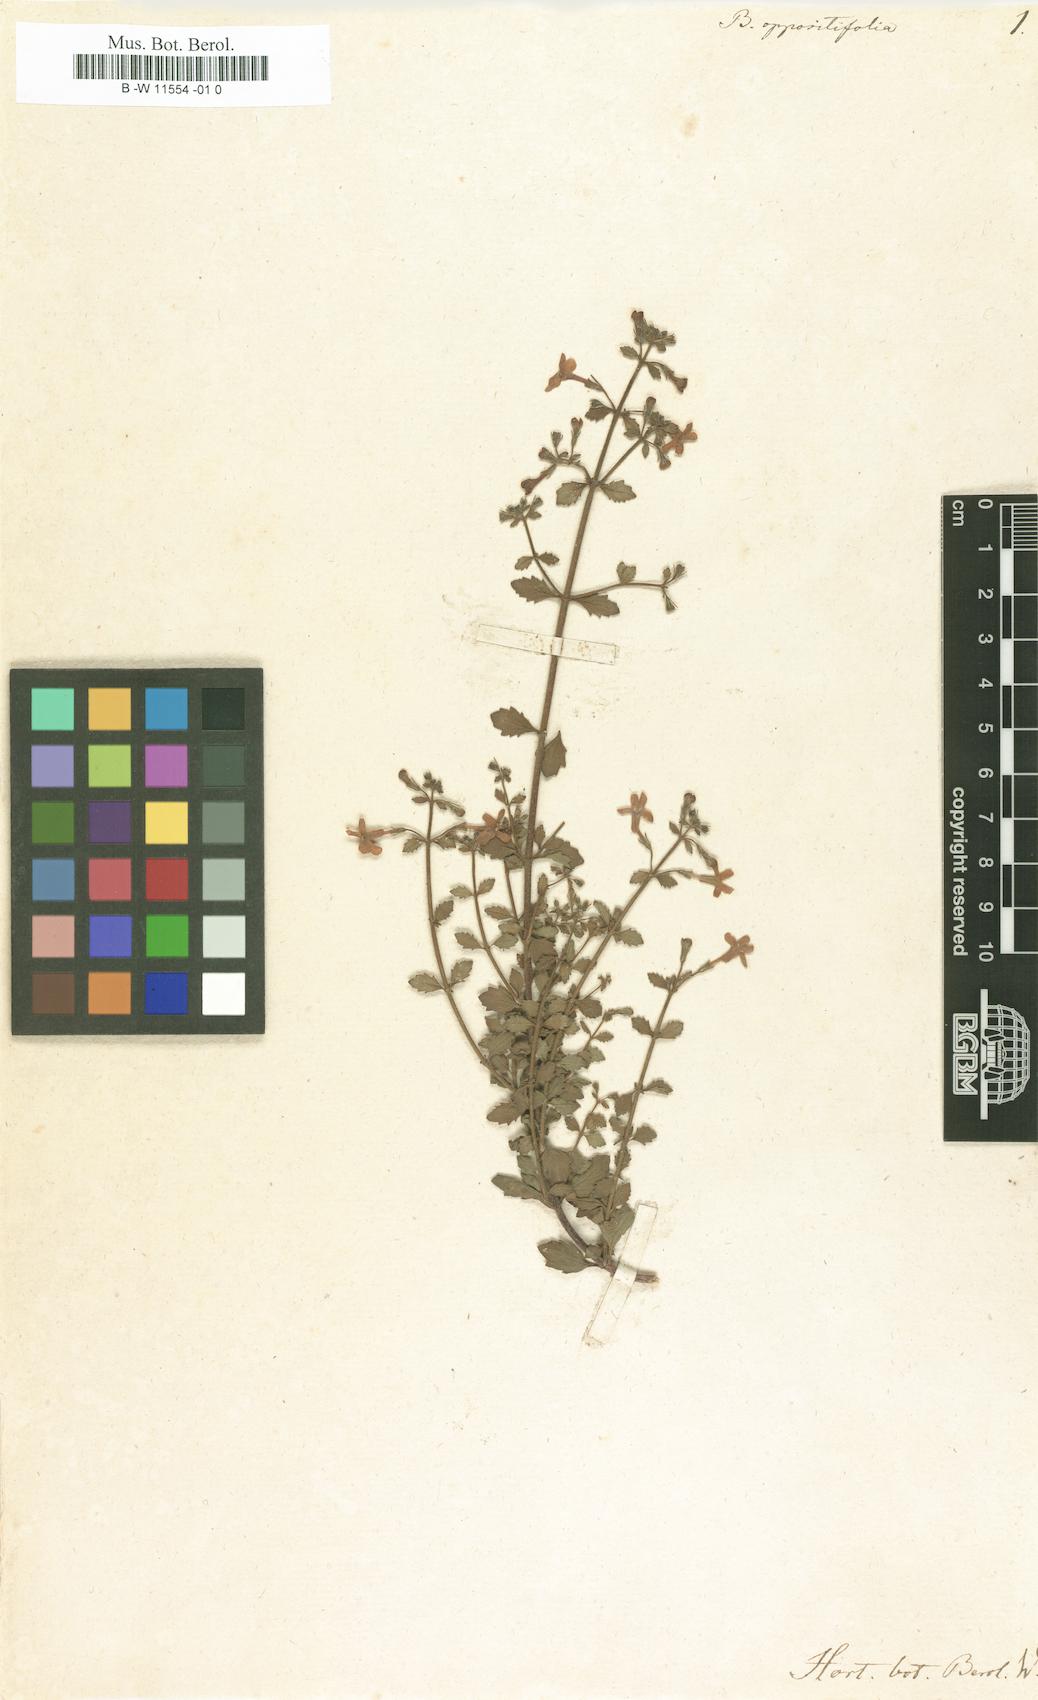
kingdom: Plantae
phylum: Tracheophyta
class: Magnoliopsida
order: Lamiales
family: Scrophulariaceae
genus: Chaenostoma
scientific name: Chaenostoma hispidum
